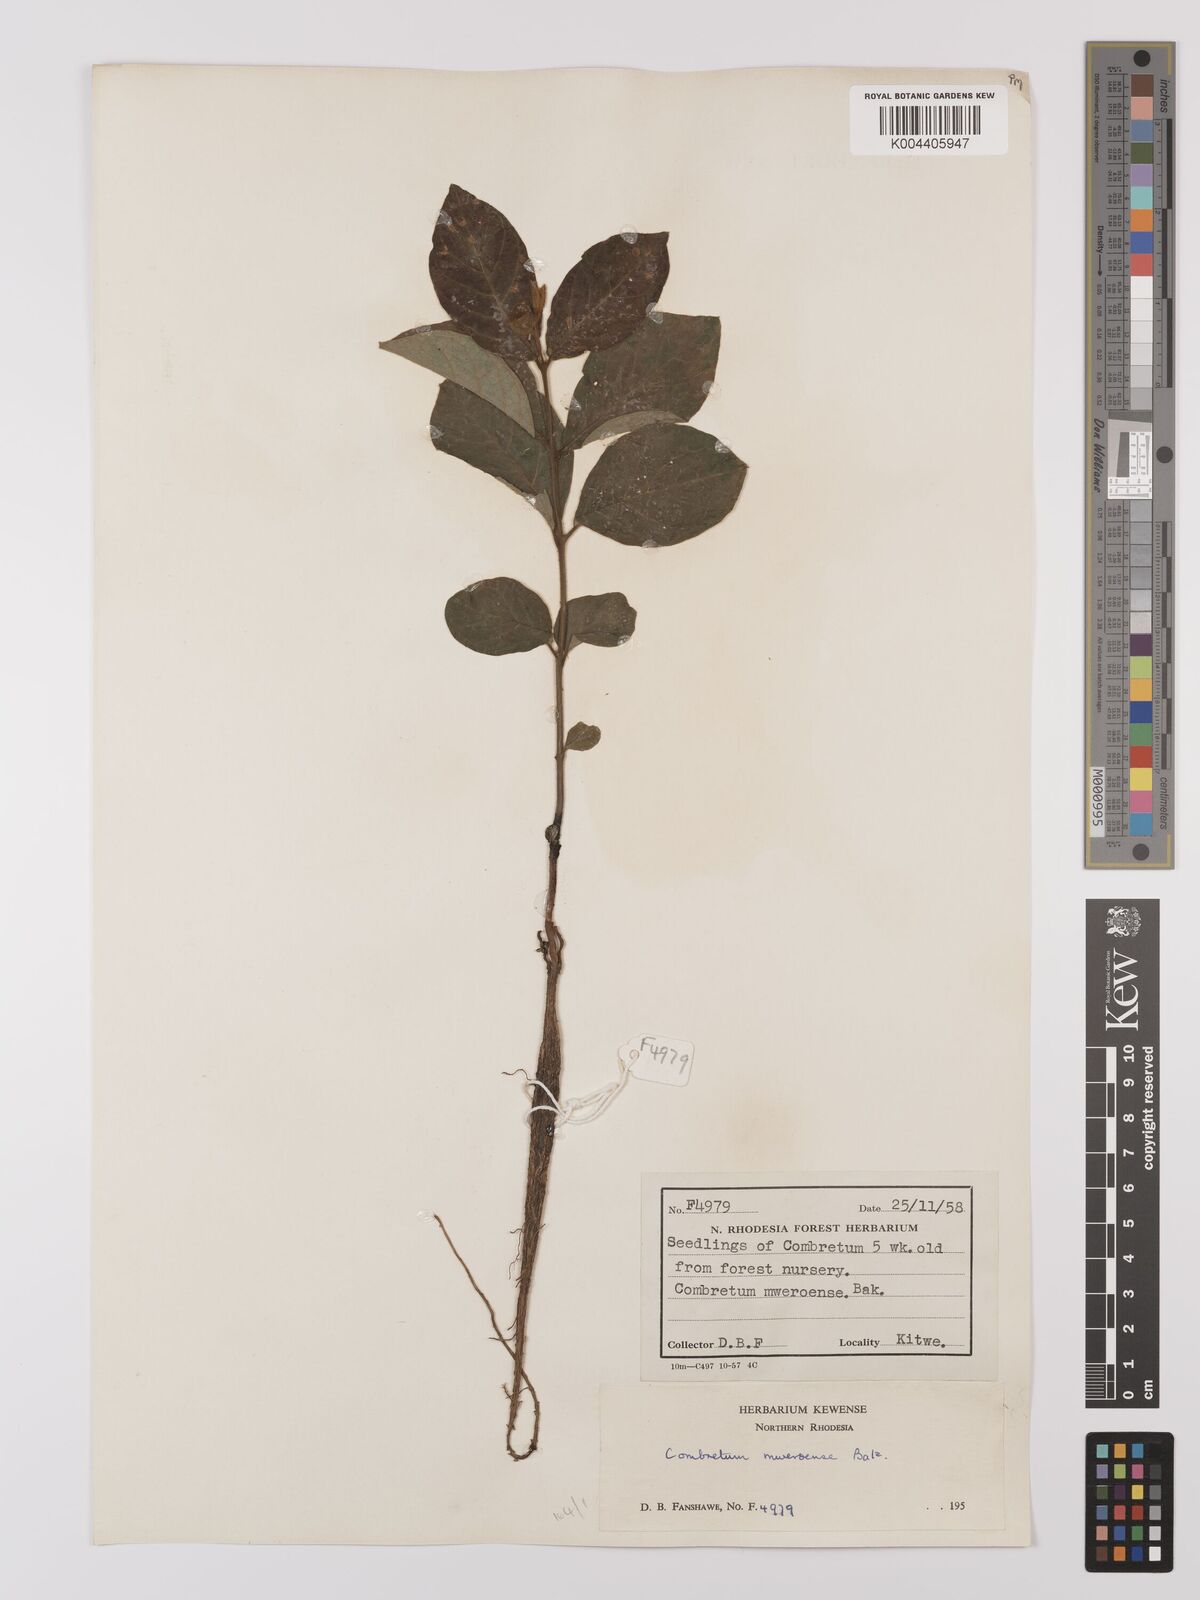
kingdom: Plantae
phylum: Tracheophyta
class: Magnoliopsida
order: Myrtales
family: Combretaceae
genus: Combretum
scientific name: Combretum mweroense
